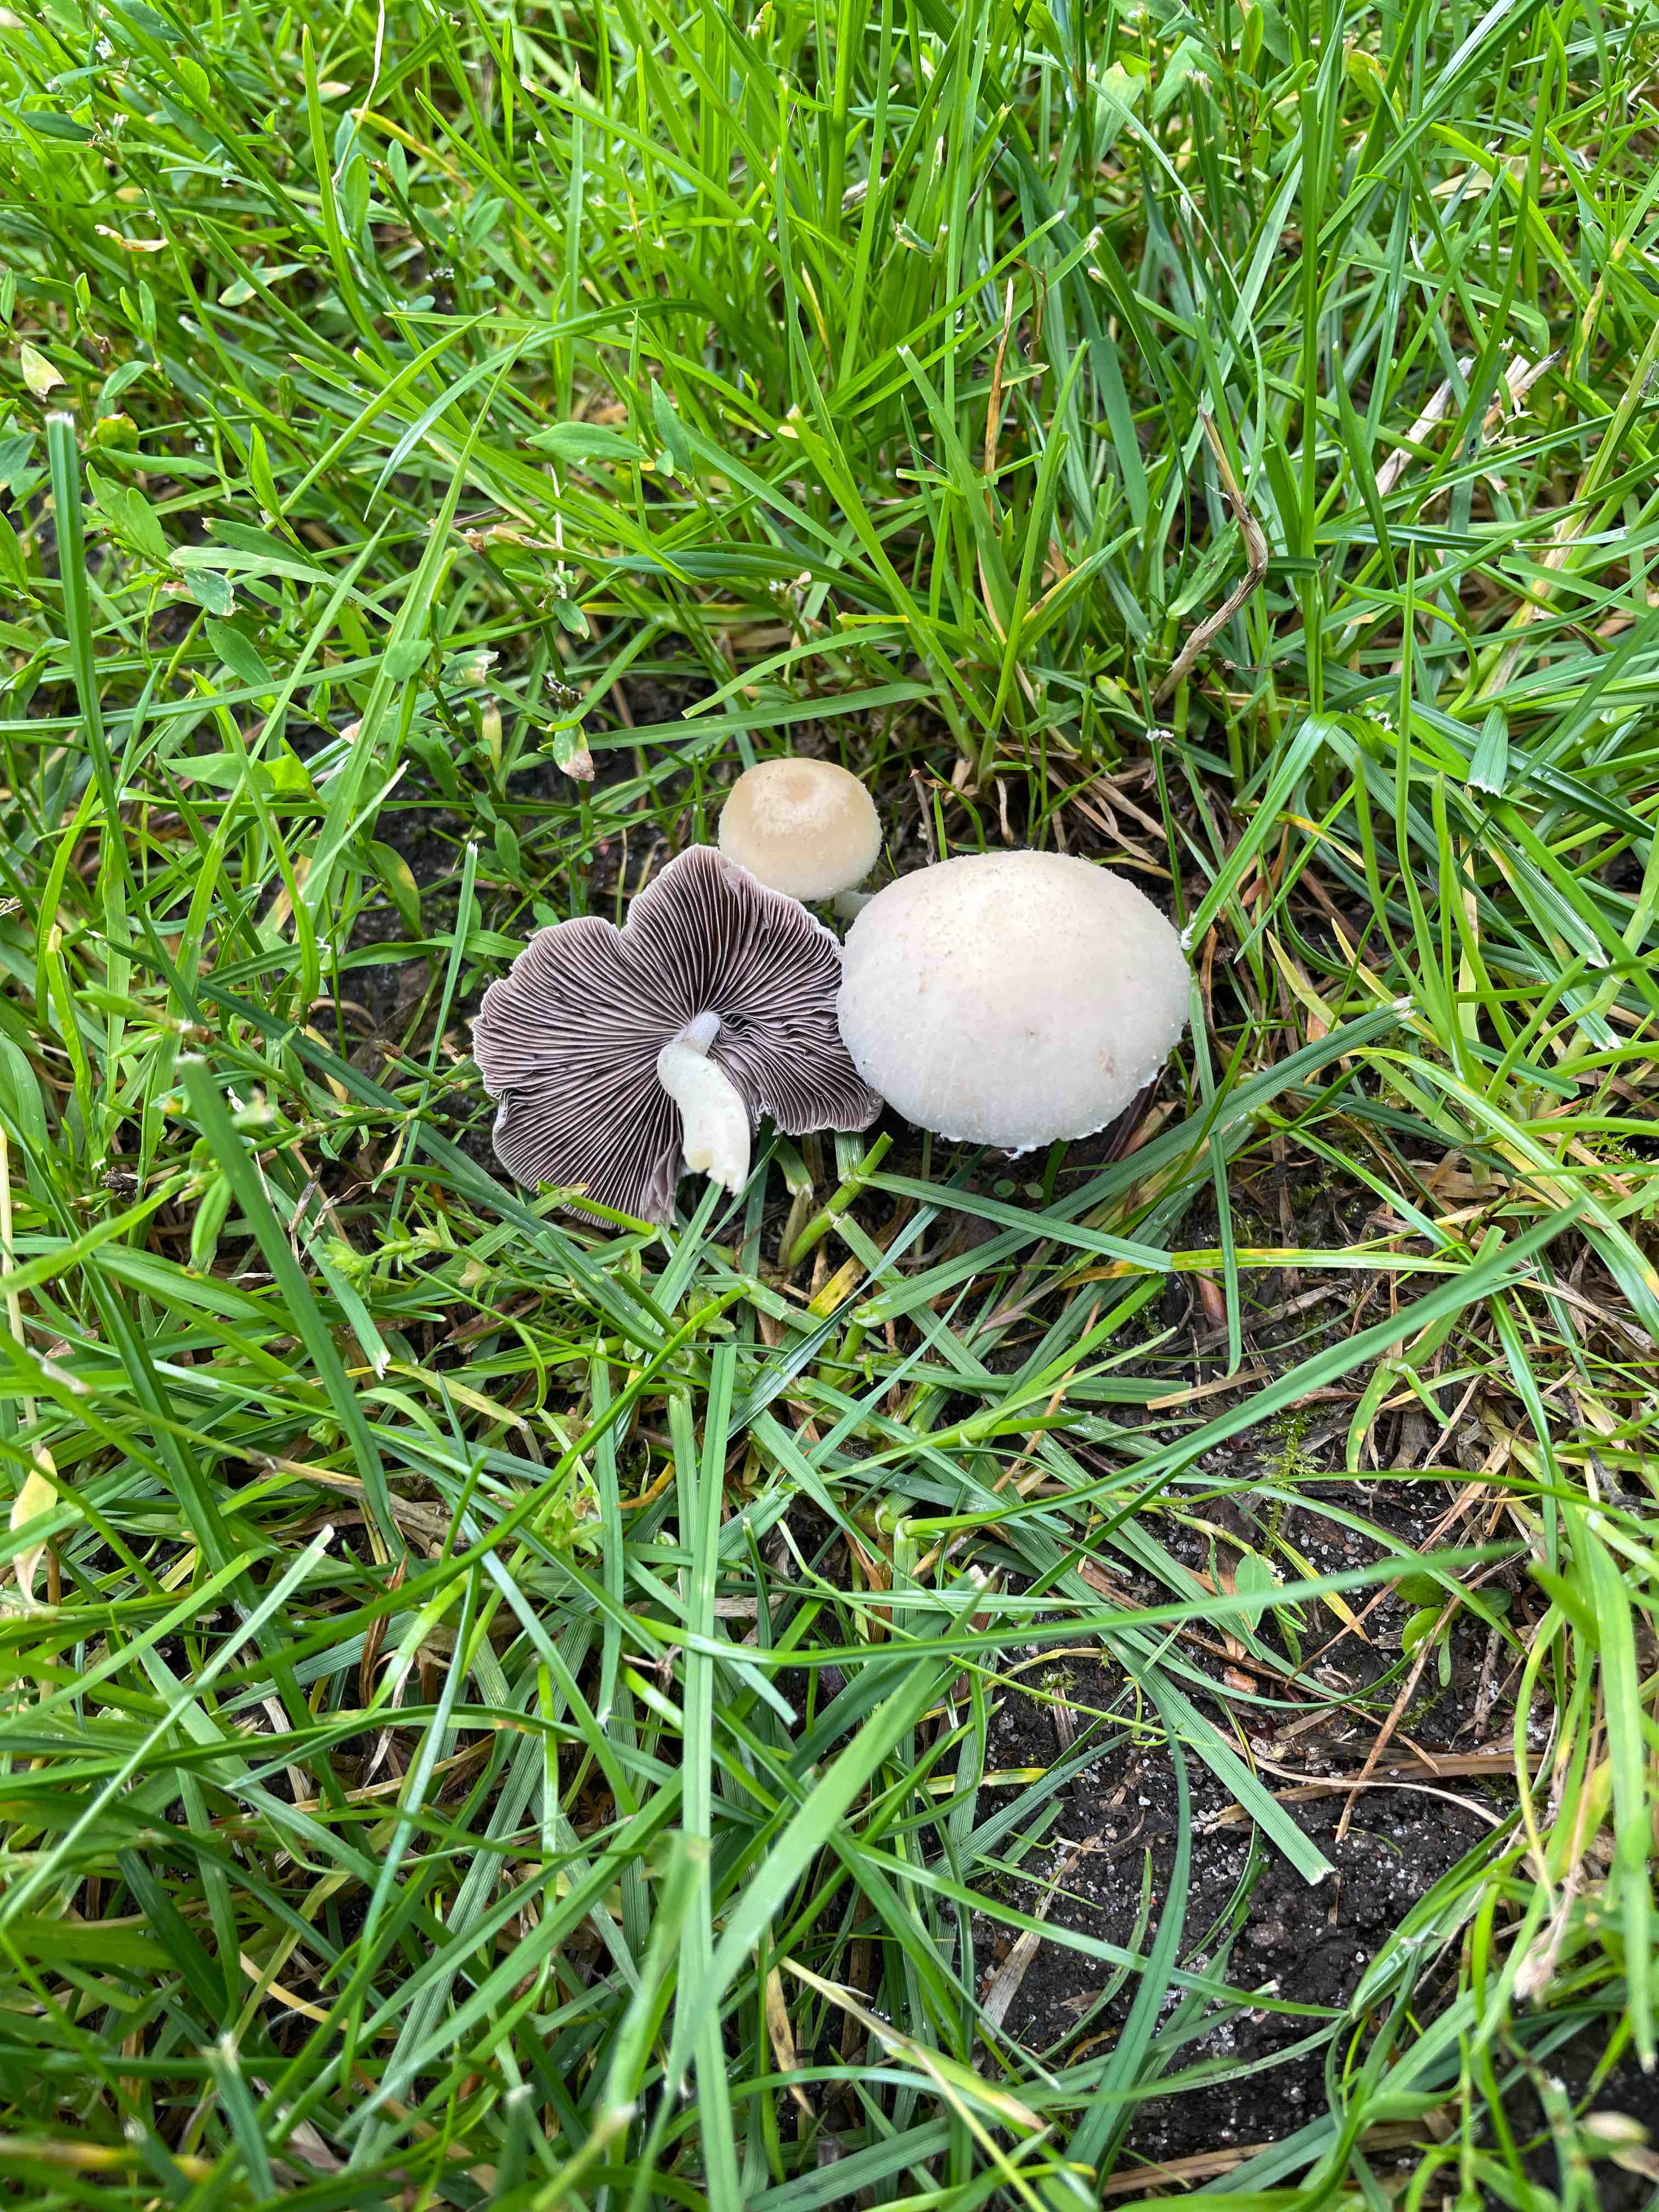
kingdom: Fungi
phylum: Basidiomycota
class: Agaricomycetes
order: Agaricales
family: Psathyrellaceae
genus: Candolleomyces
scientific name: Candolleomyces candolleanus
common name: Candolles mørkhat
